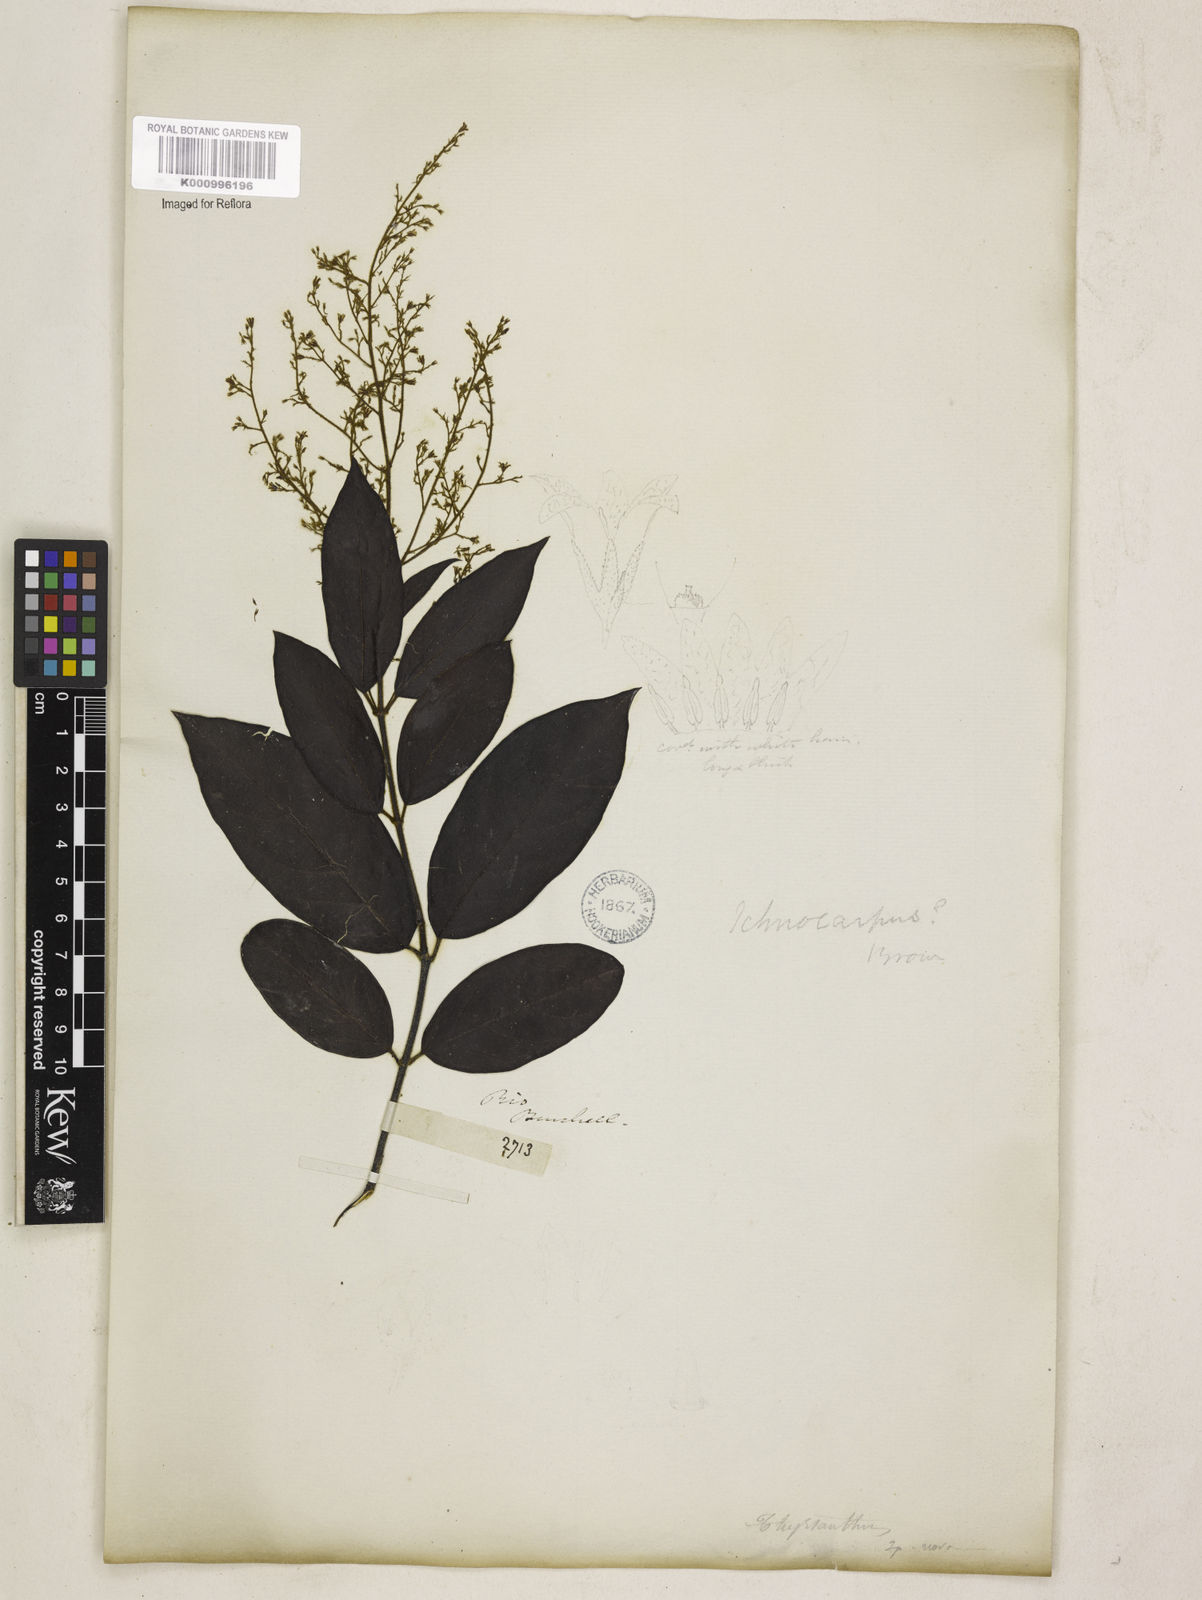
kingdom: Plantae
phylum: Tracheophyta
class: Magnoliopsida
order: Gentianales
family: Apocynaceae
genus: Forsteronia
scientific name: Forsteronia
